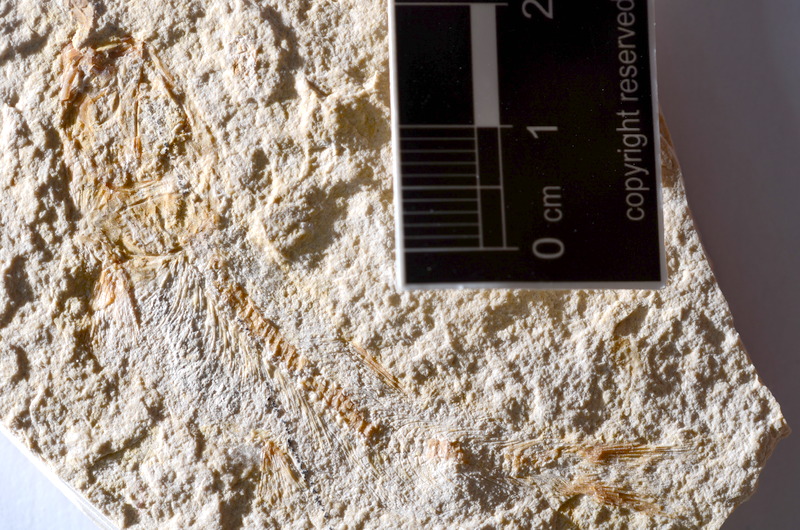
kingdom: Animalia
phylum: Chordata
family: Ascalaboidae
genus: Tharsis
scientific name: Tharsis dubius
